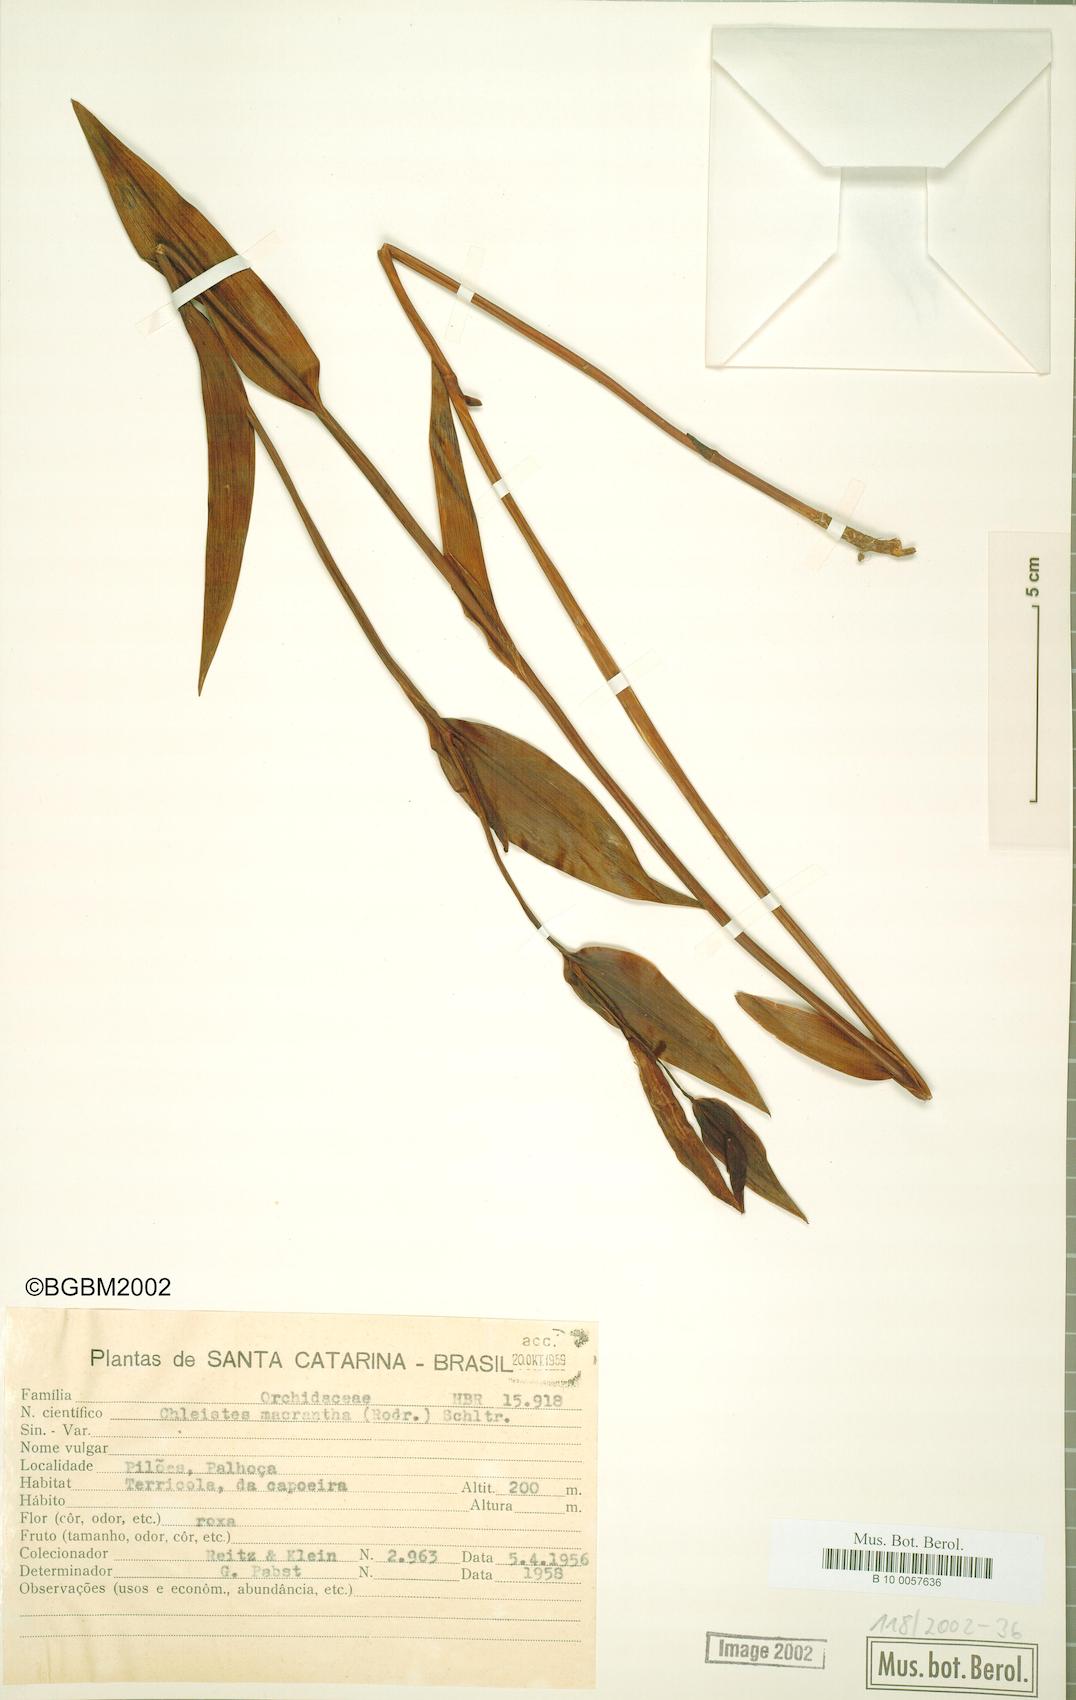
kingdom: Plantae
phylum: Tracheophyta
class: Liliopsida
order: Asparagales
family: Orchidaceae
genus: Cleistes
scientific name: Cleistes libonii
